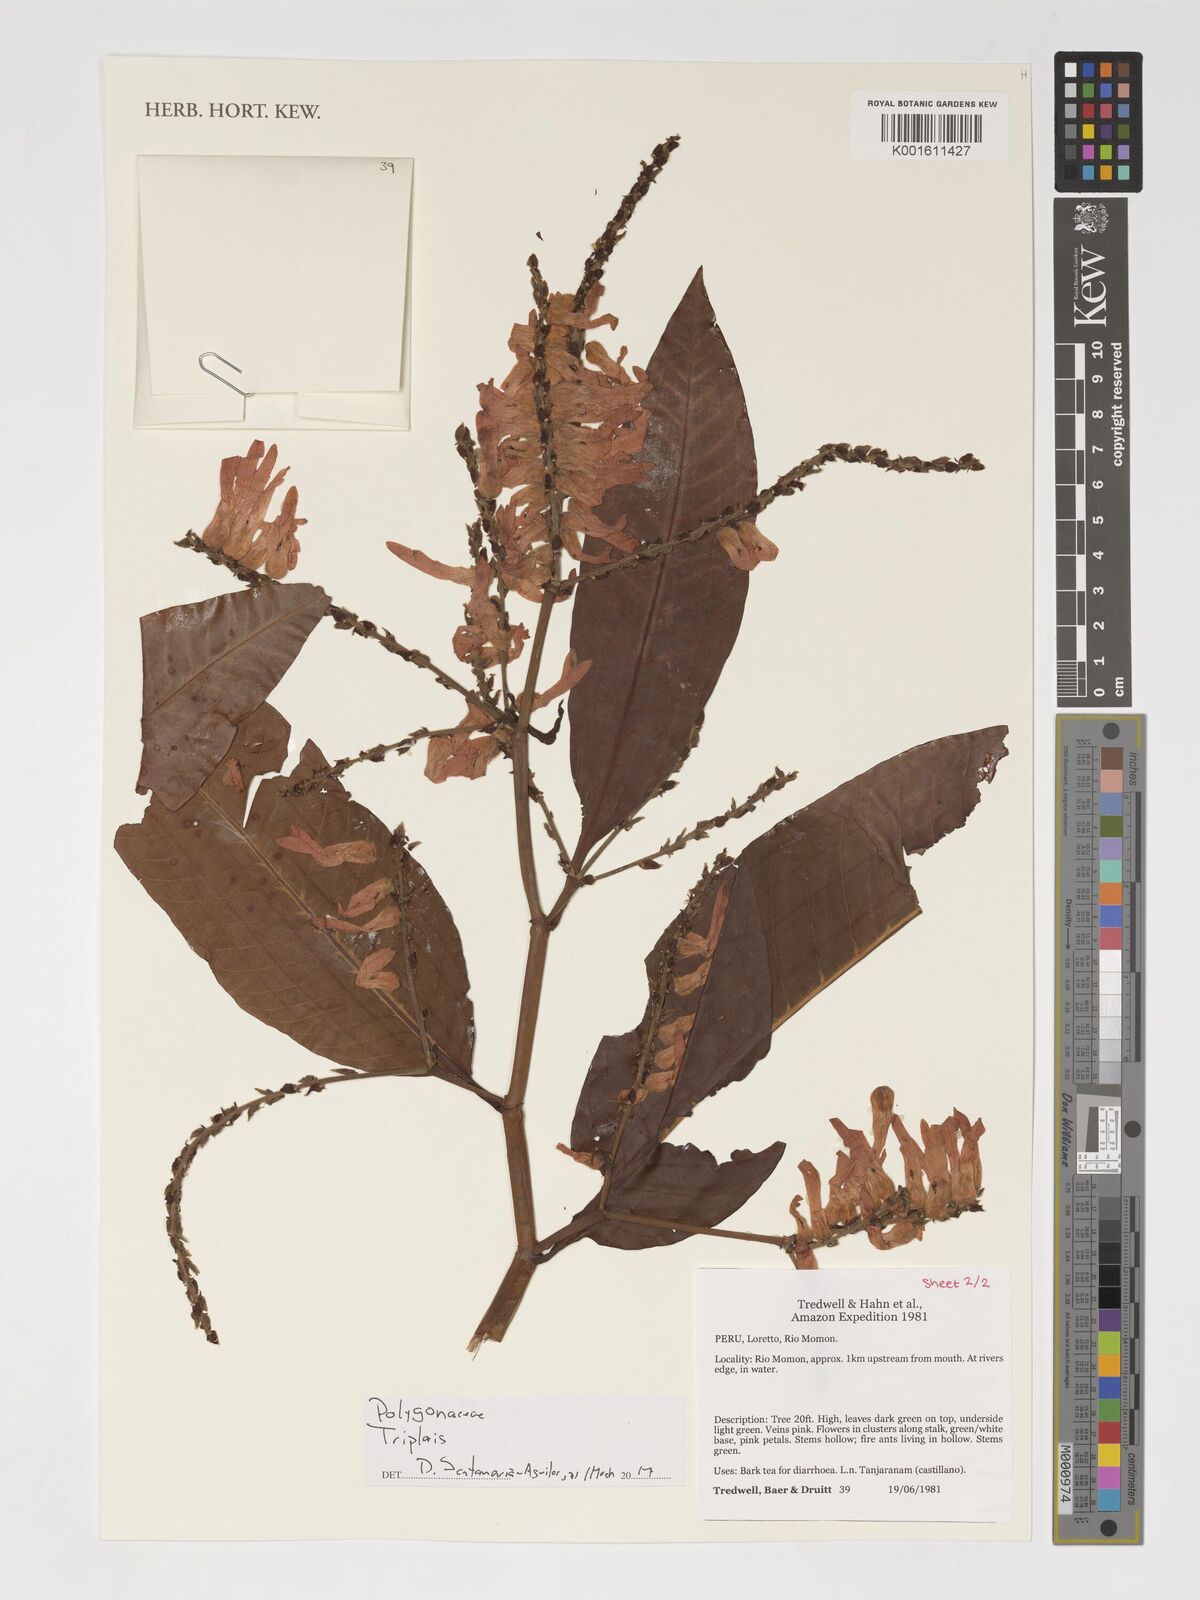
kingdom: Plantae
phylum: Tracheophyta
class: Magnoliopsida
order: Caryophyllales
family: Polygonaceae
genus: Triplaris
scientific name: Triplaris
